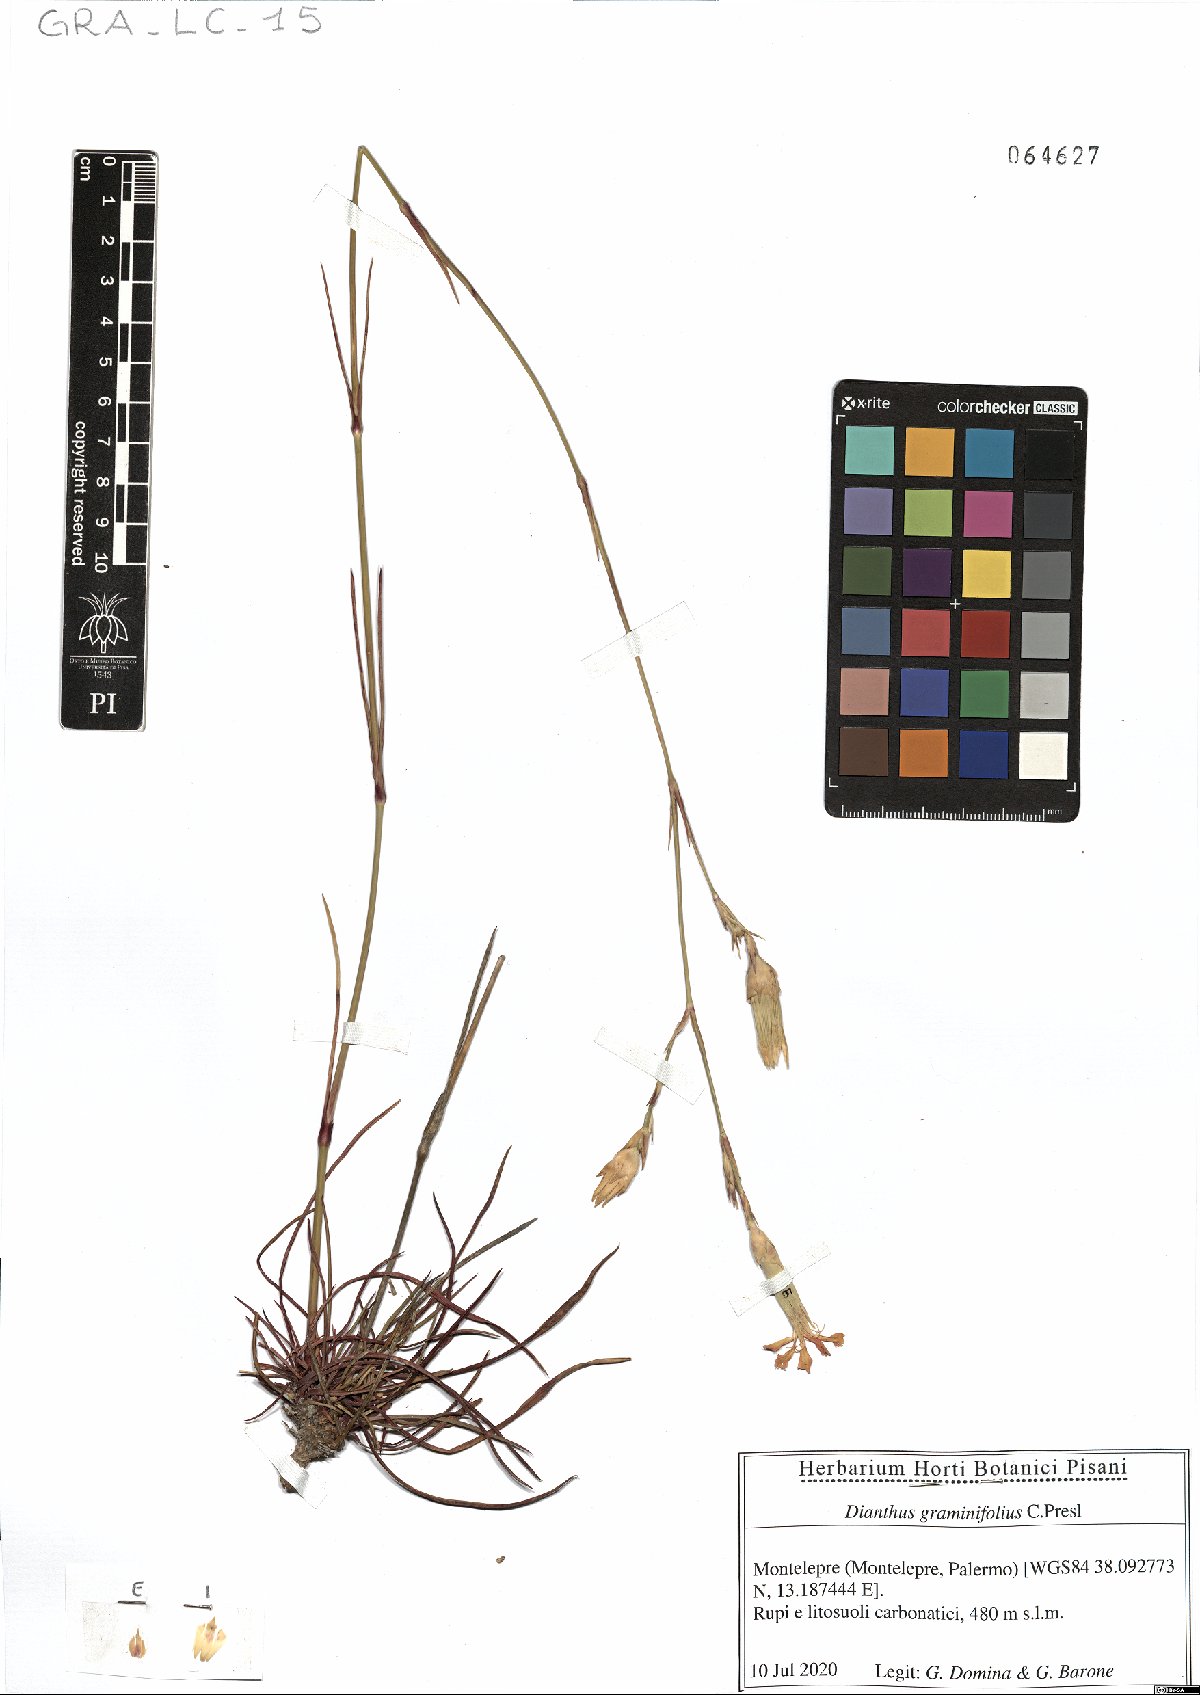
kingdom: Plantae
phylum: Tracheophyta
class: Magnoliopsida
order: Caryophyllales
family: Caryophyllaceae
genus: Dianthus
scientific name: Dianthus graminifolius
